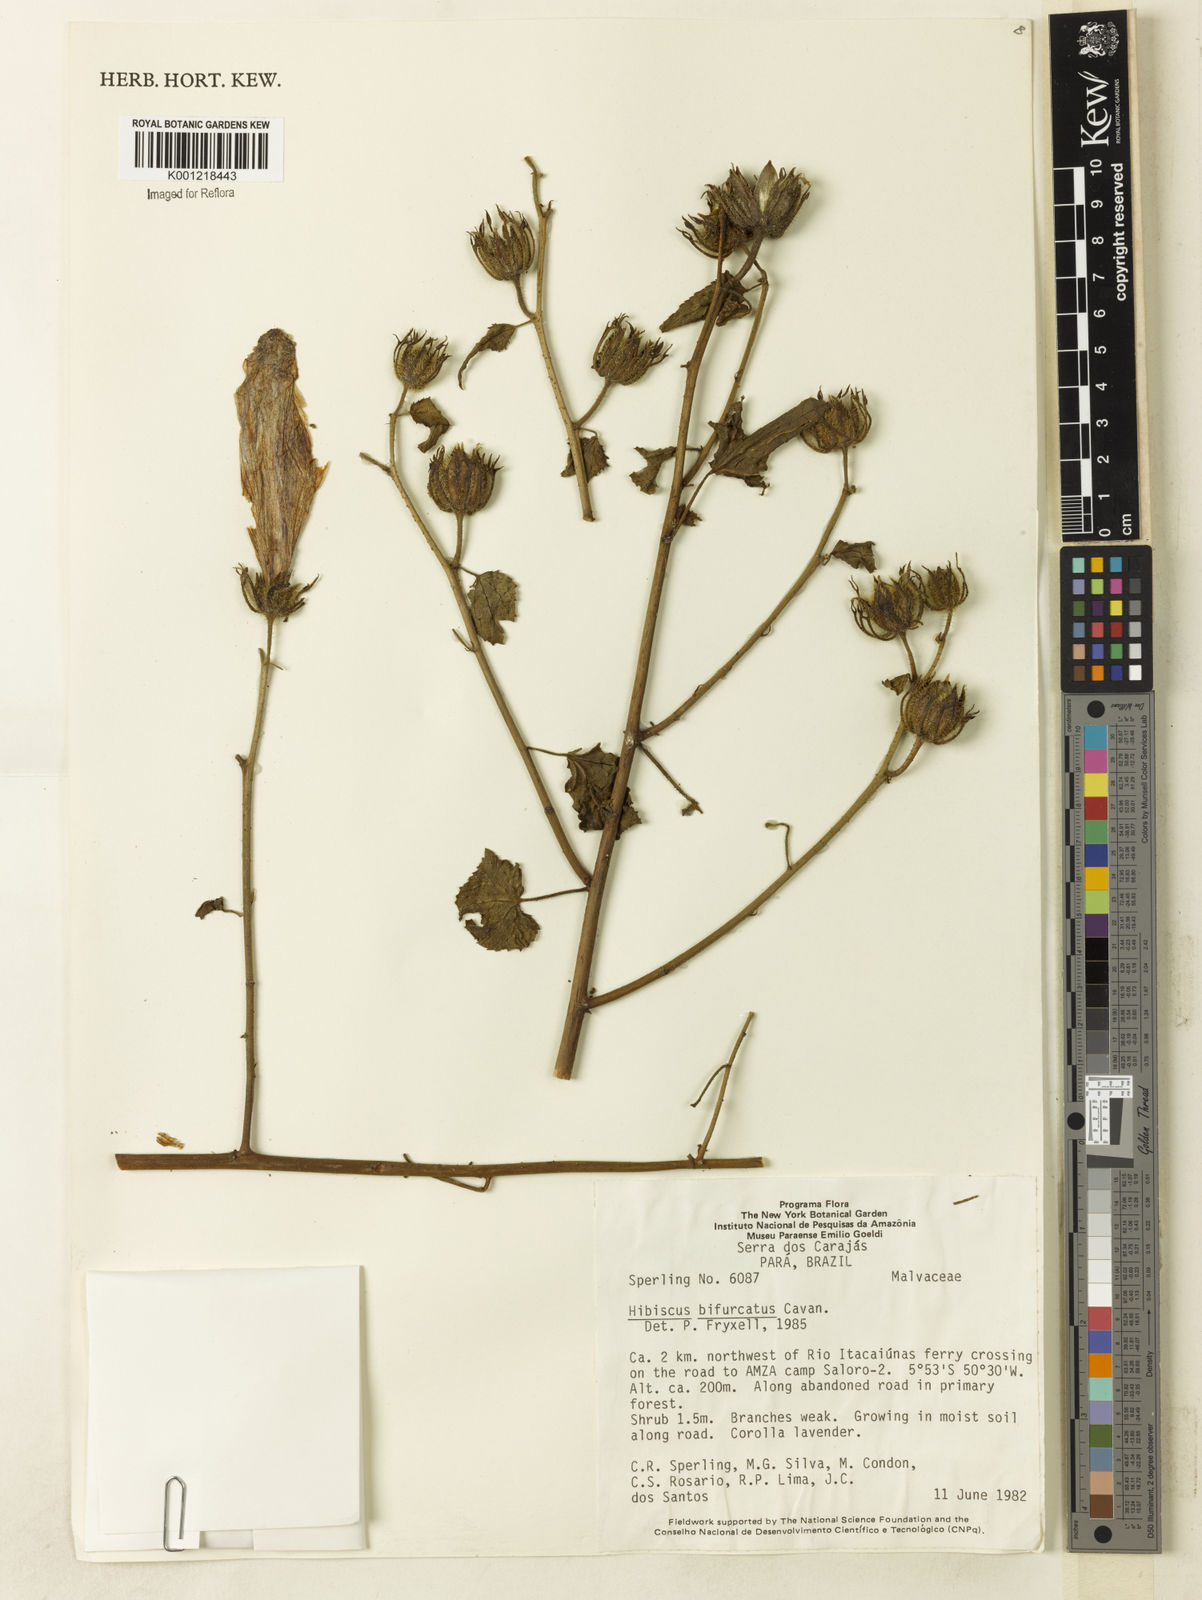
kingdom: Plantae
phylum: Tracheophyta
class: Magnoliopsida
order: Malvales
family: Malvaceae
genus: Hibiscus
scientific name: Hibiscus bifurcatus
